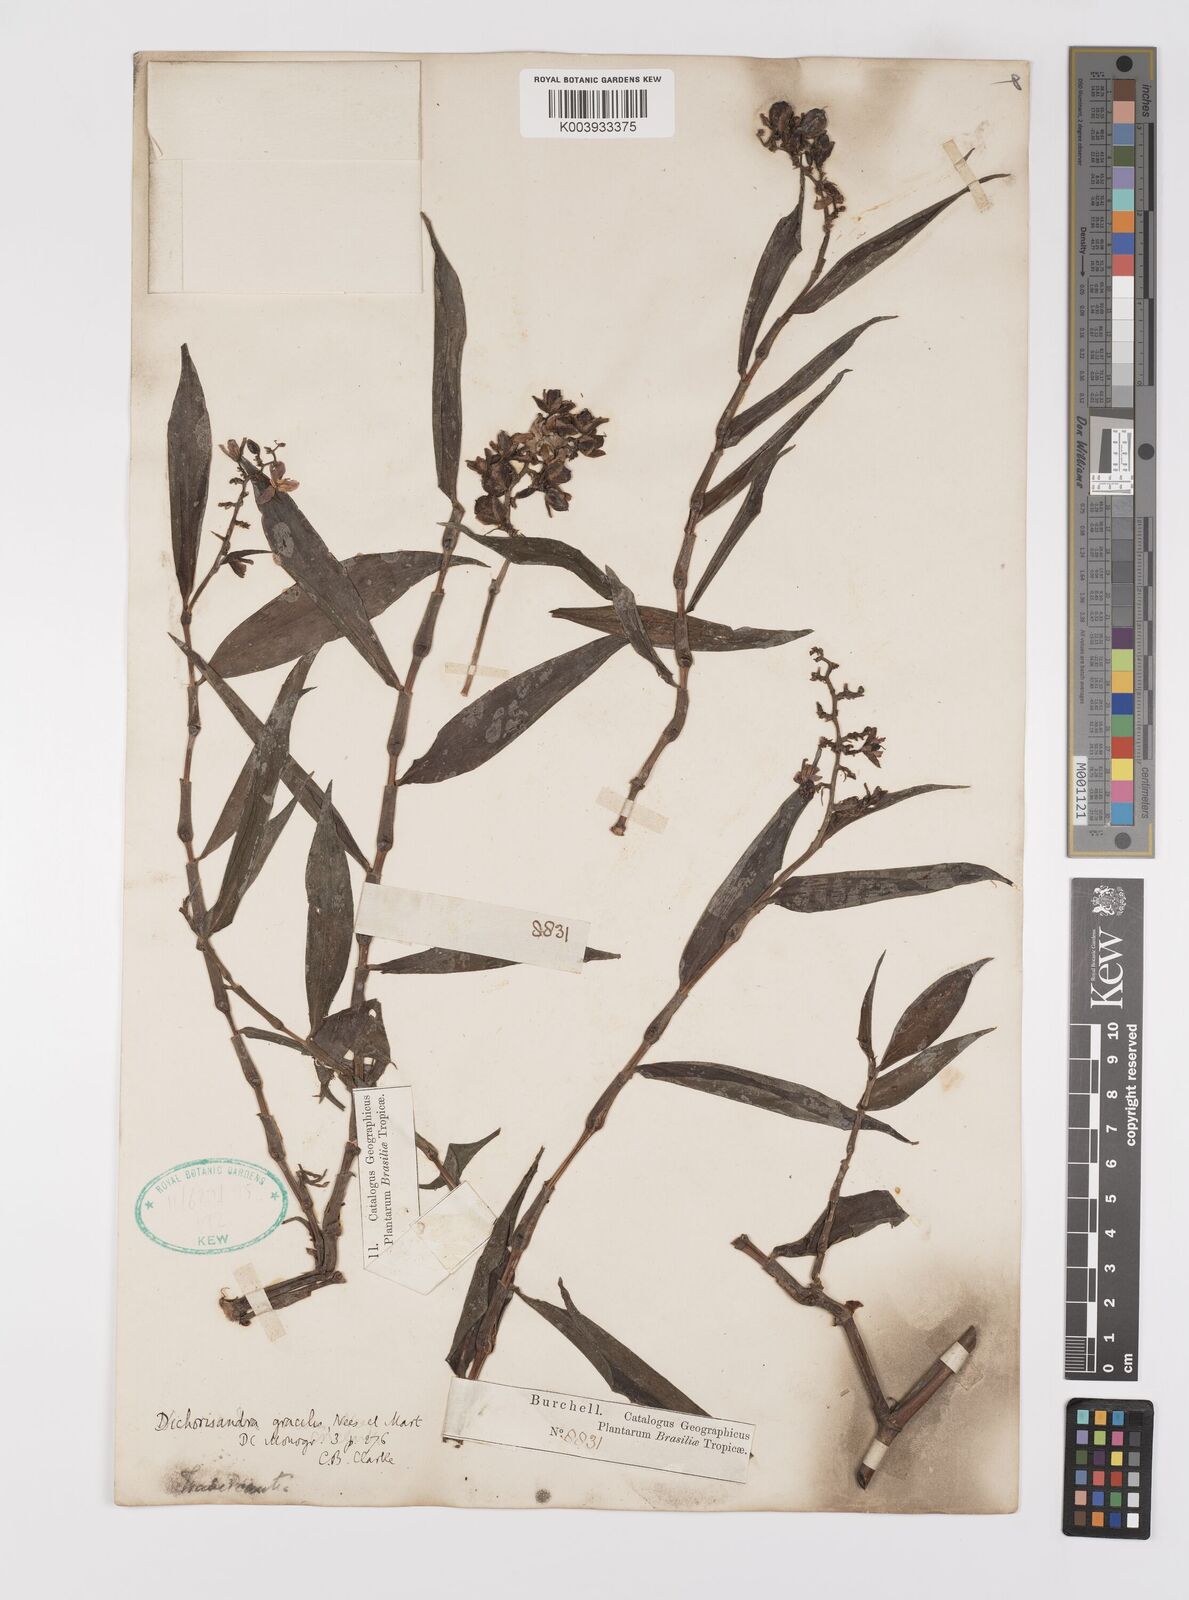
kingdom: Plantae
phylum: Tracheophyta
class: Liliopsida
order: Commelinales
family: Commelinaceae
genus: Dichorisandra
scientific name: Dichorisandra hexandra
